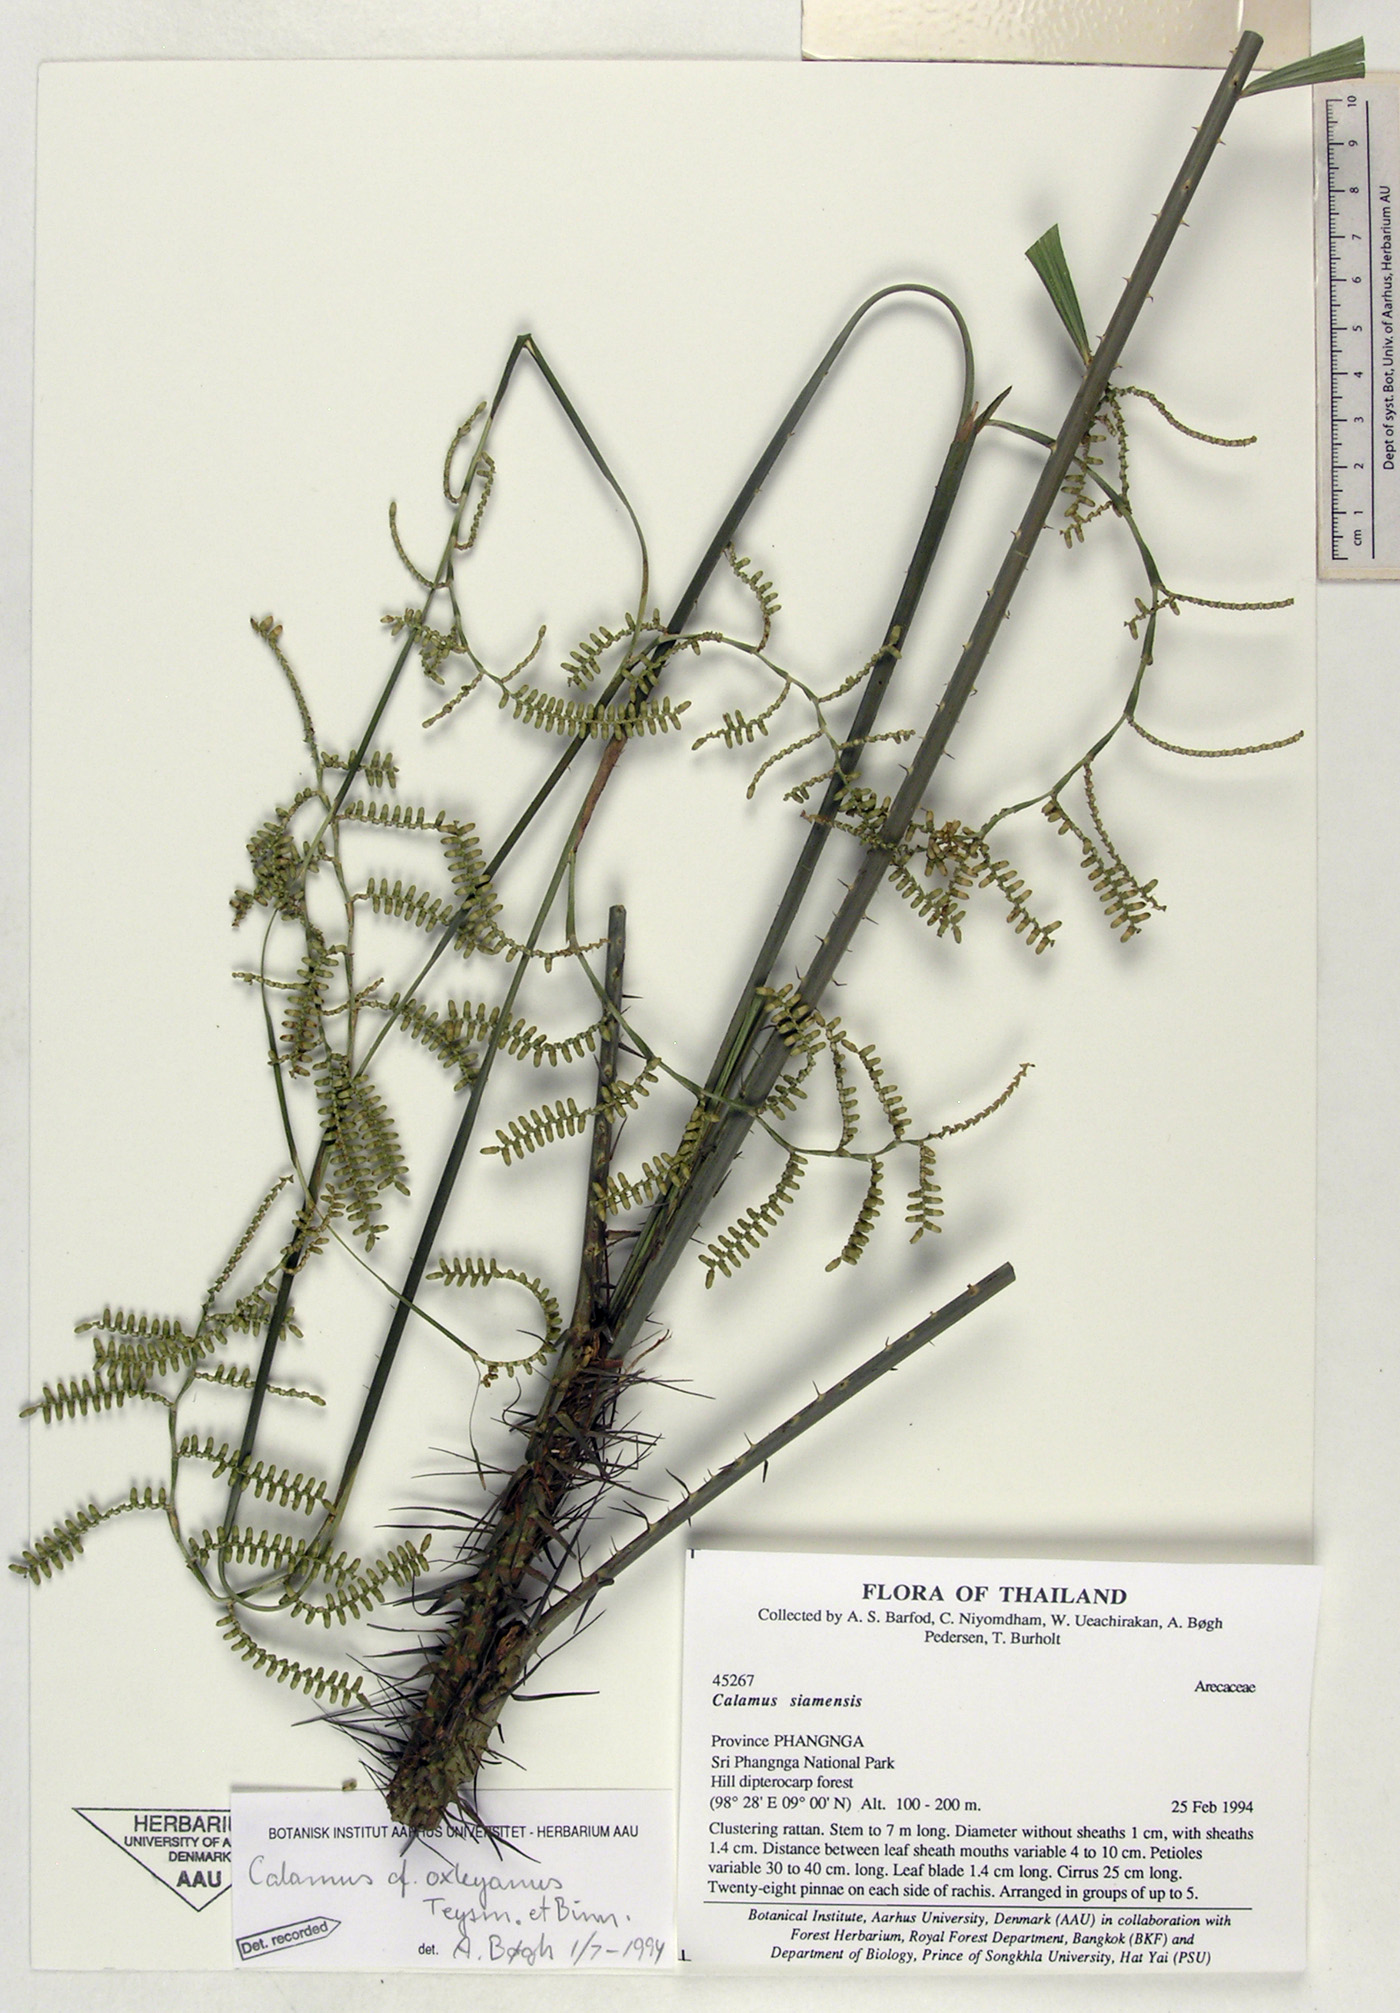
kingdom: Plantae
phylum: Tracheophyta
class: Liliopsida
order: Arecales
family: Arecaceae
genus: Calamus
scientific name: Calamus helferianus
